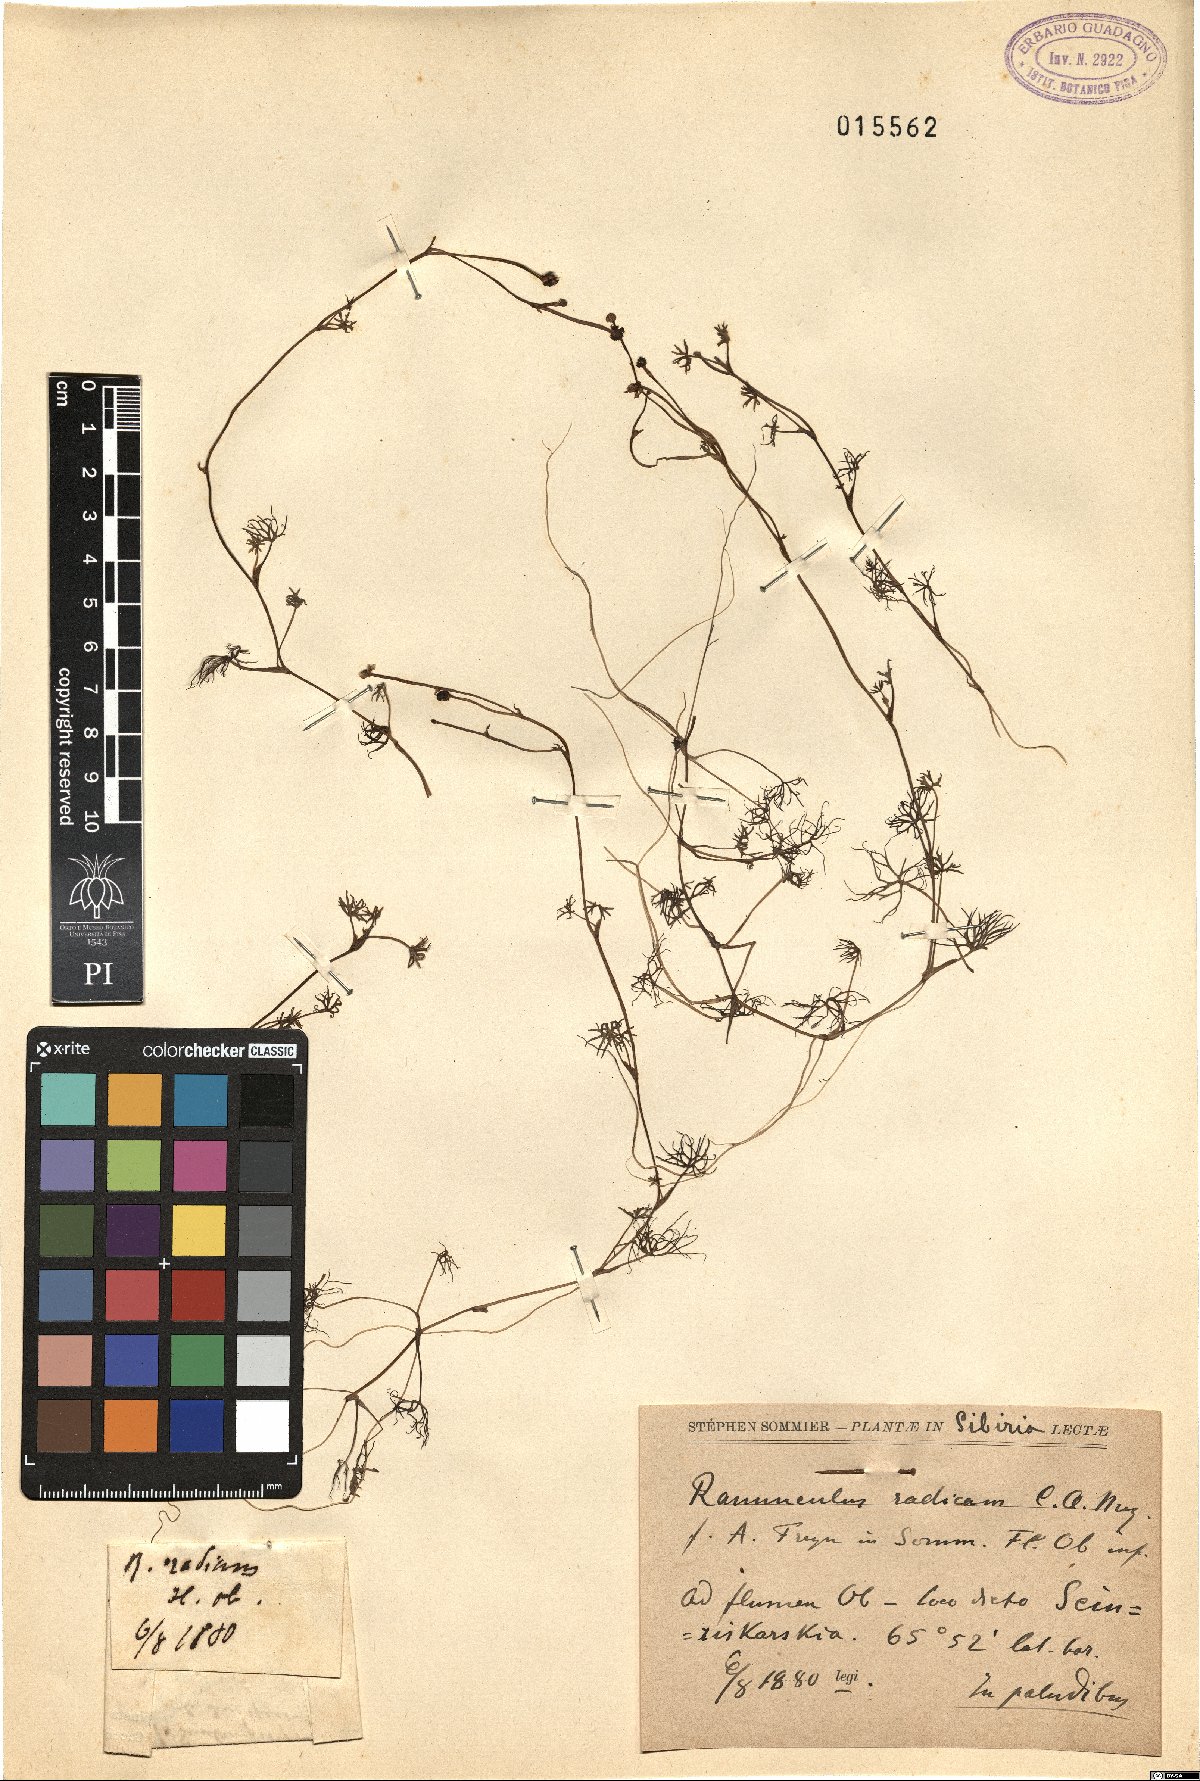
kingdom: Plantae
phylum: Tracheophyta
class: Magnoliopsida
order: Ranunculales
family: Ranunculaceae
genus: Ranunculus
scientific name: Ranunculus radicans
